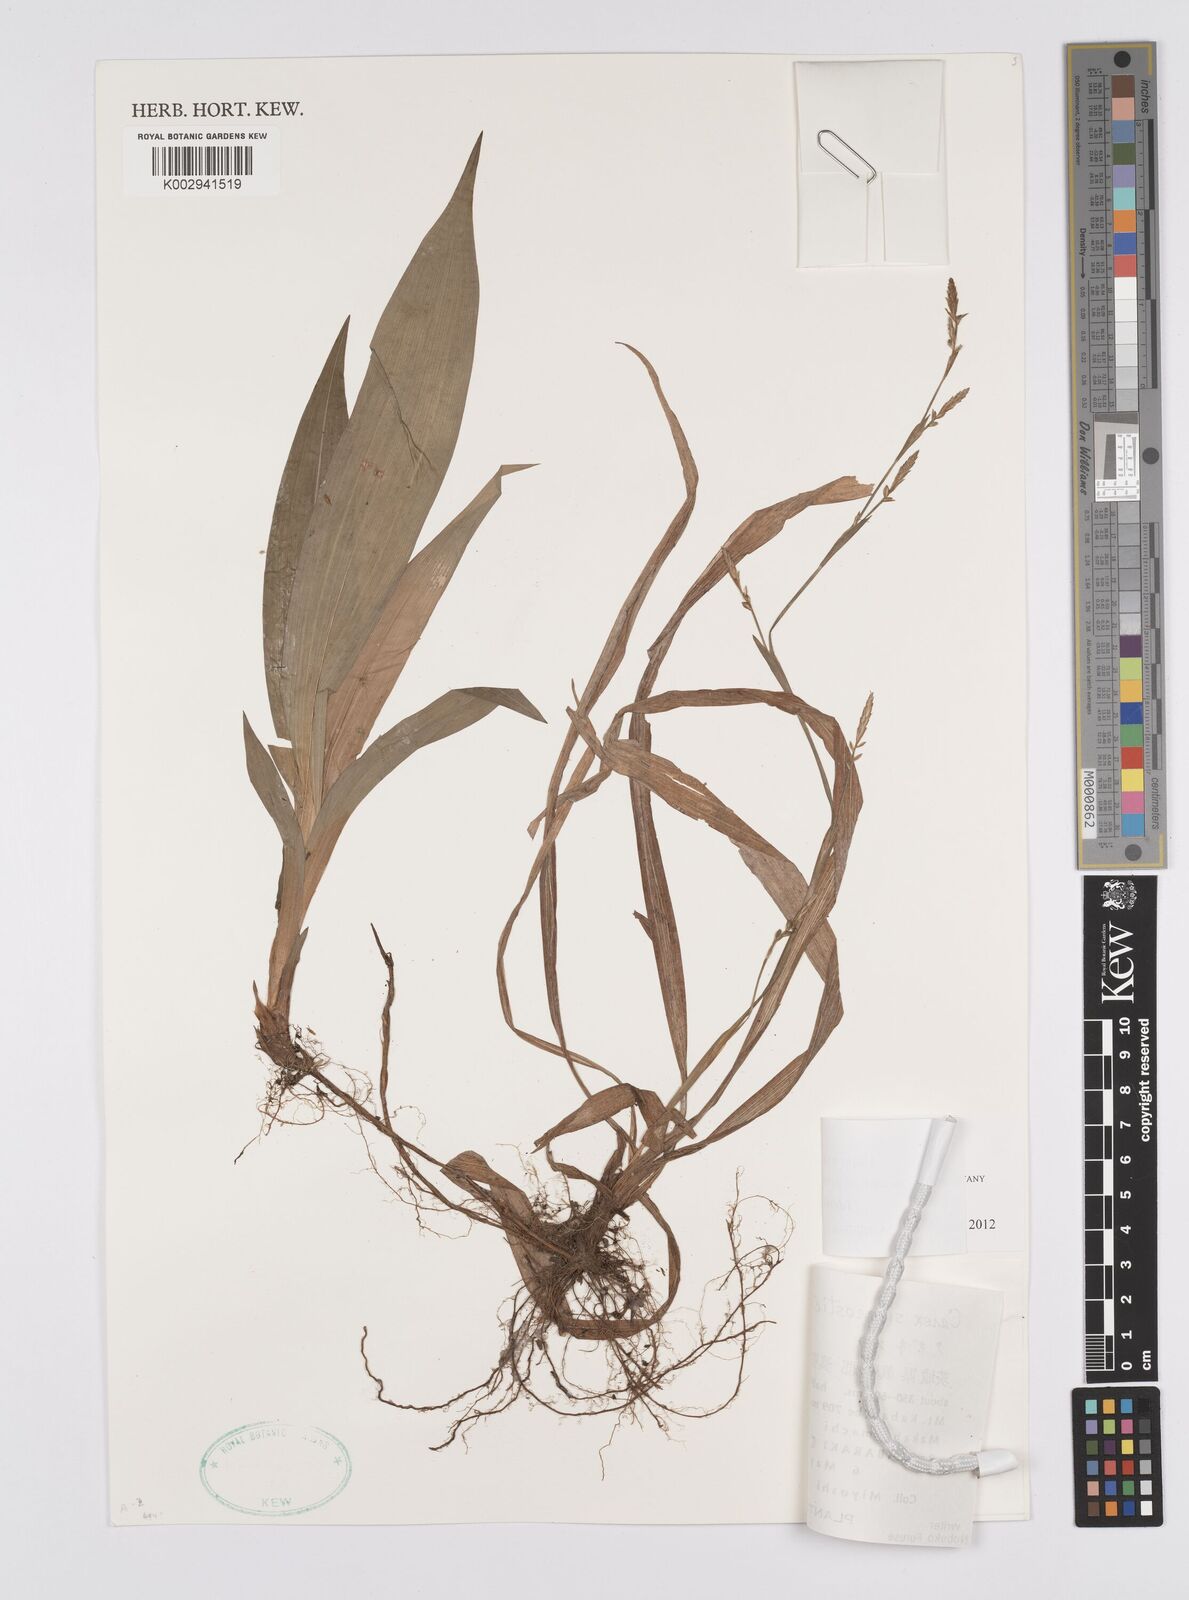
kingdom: Plantae
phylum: Tracheophyta
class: Liliopsida
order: Poales
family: Cyperaceae
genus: Carex
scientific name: Carex siderosticta
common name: Broadleaf sedge
